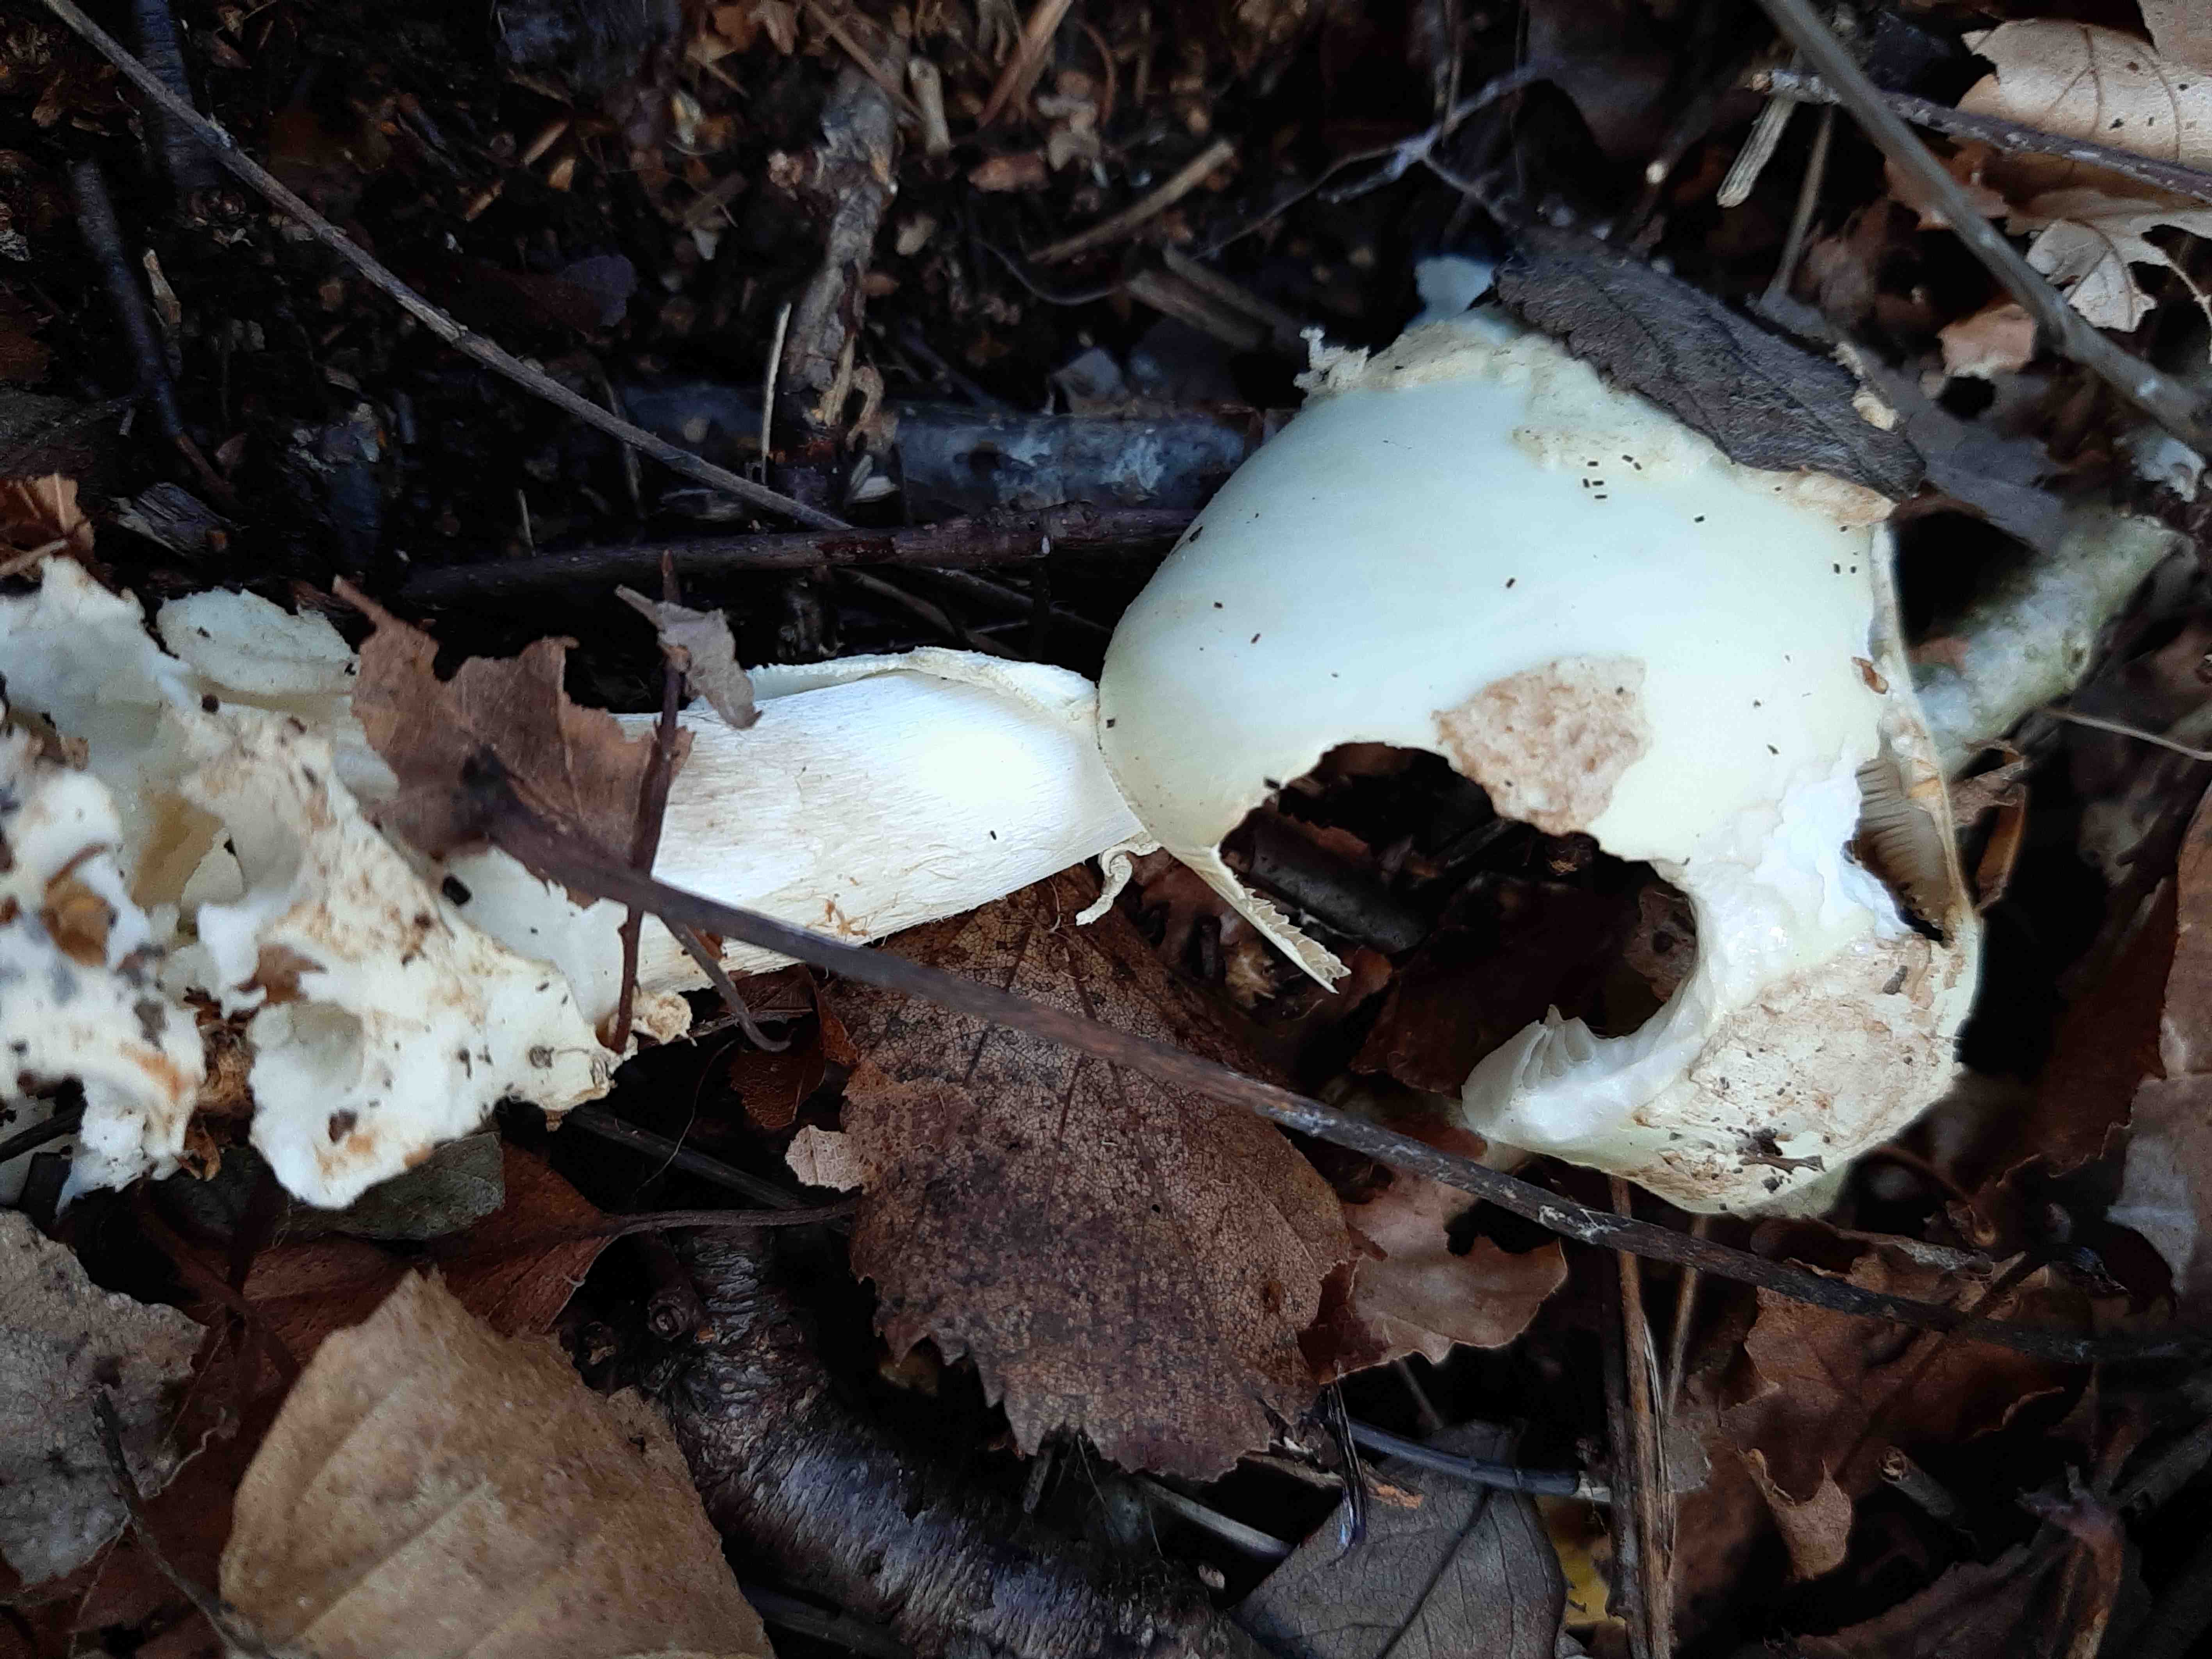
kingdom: Fungi
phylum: Basidiomycota
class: Agaricomycetes
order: Agaricales
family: Amanitaceae
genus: Amanita
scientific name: Amanita citrina
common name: kugleknoldet fluesvamp
